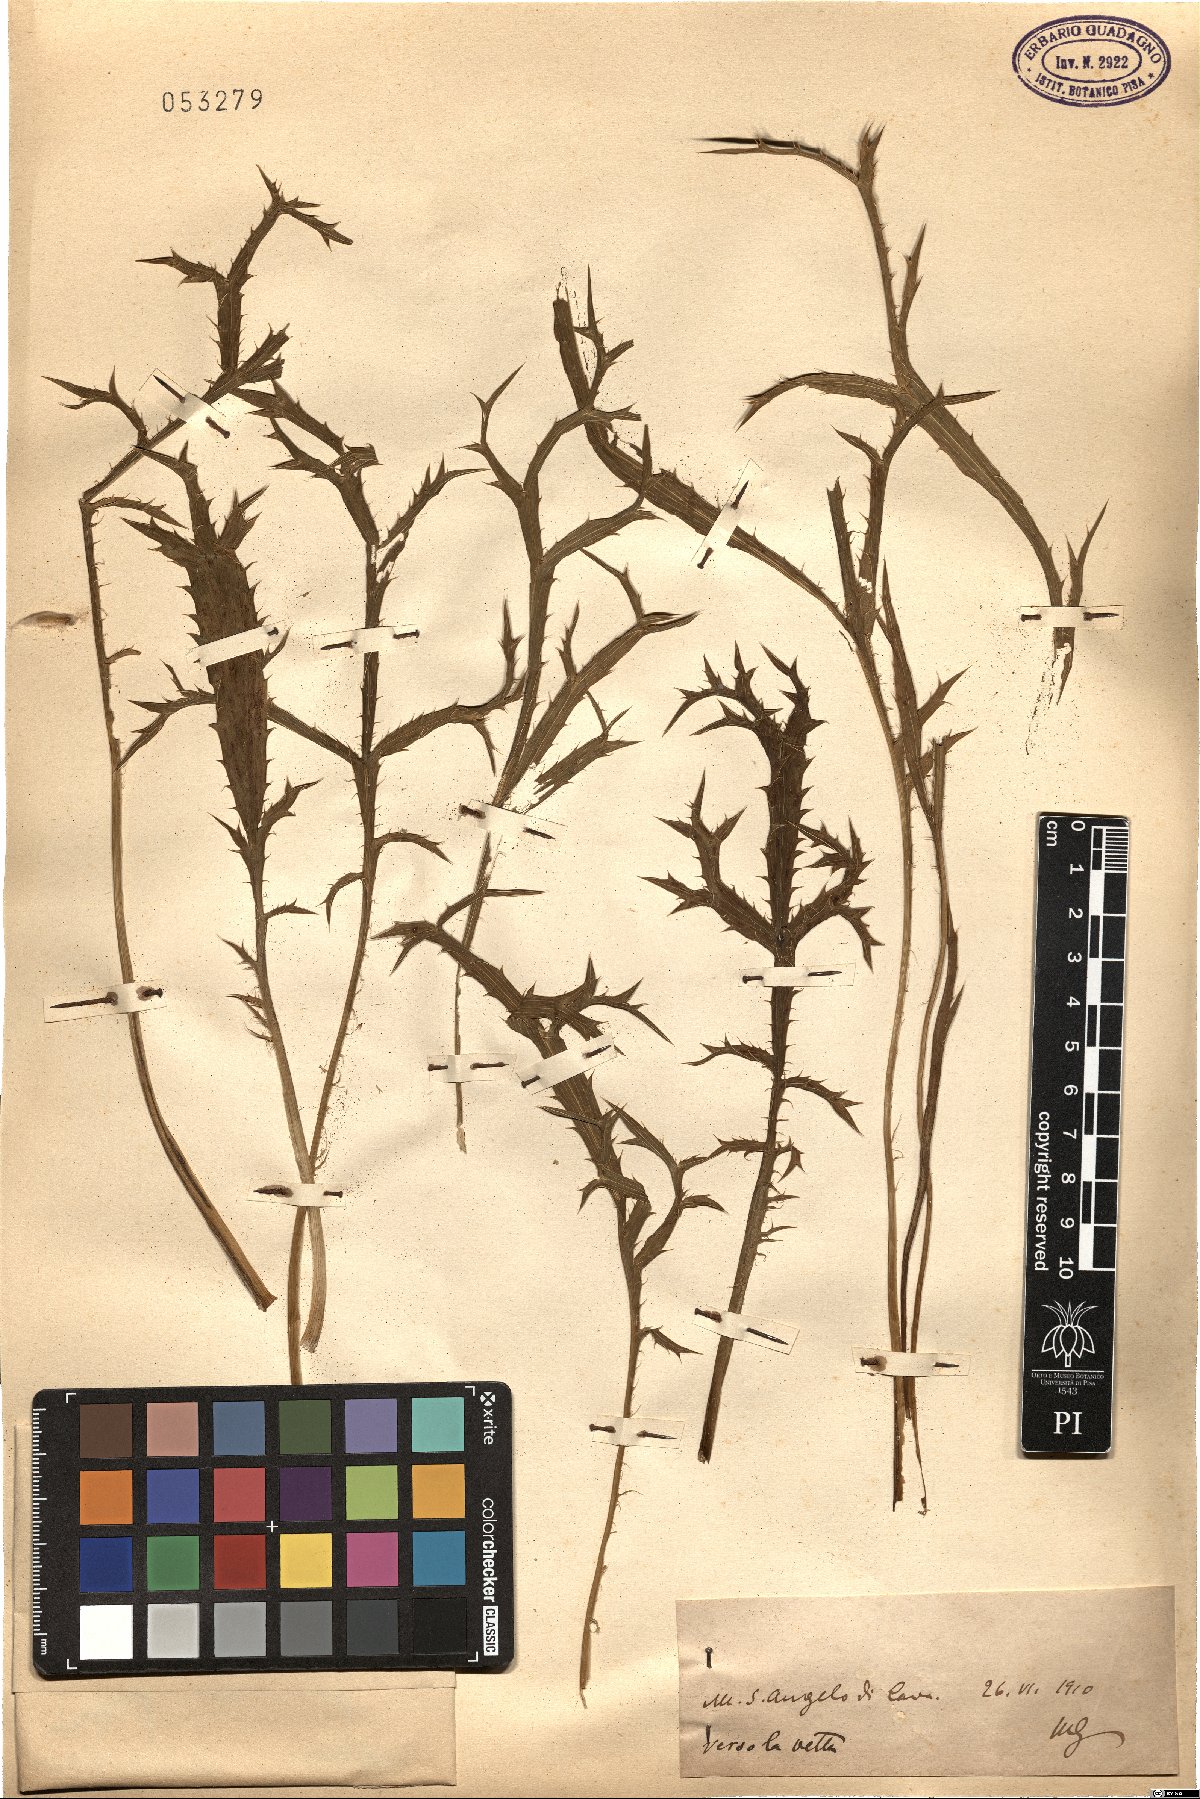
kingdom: Plantae
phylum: Tracheophyta
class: Magnoliopsida
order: Apiales
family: Apiaceae
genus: Eryngium
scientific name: Eryngium
